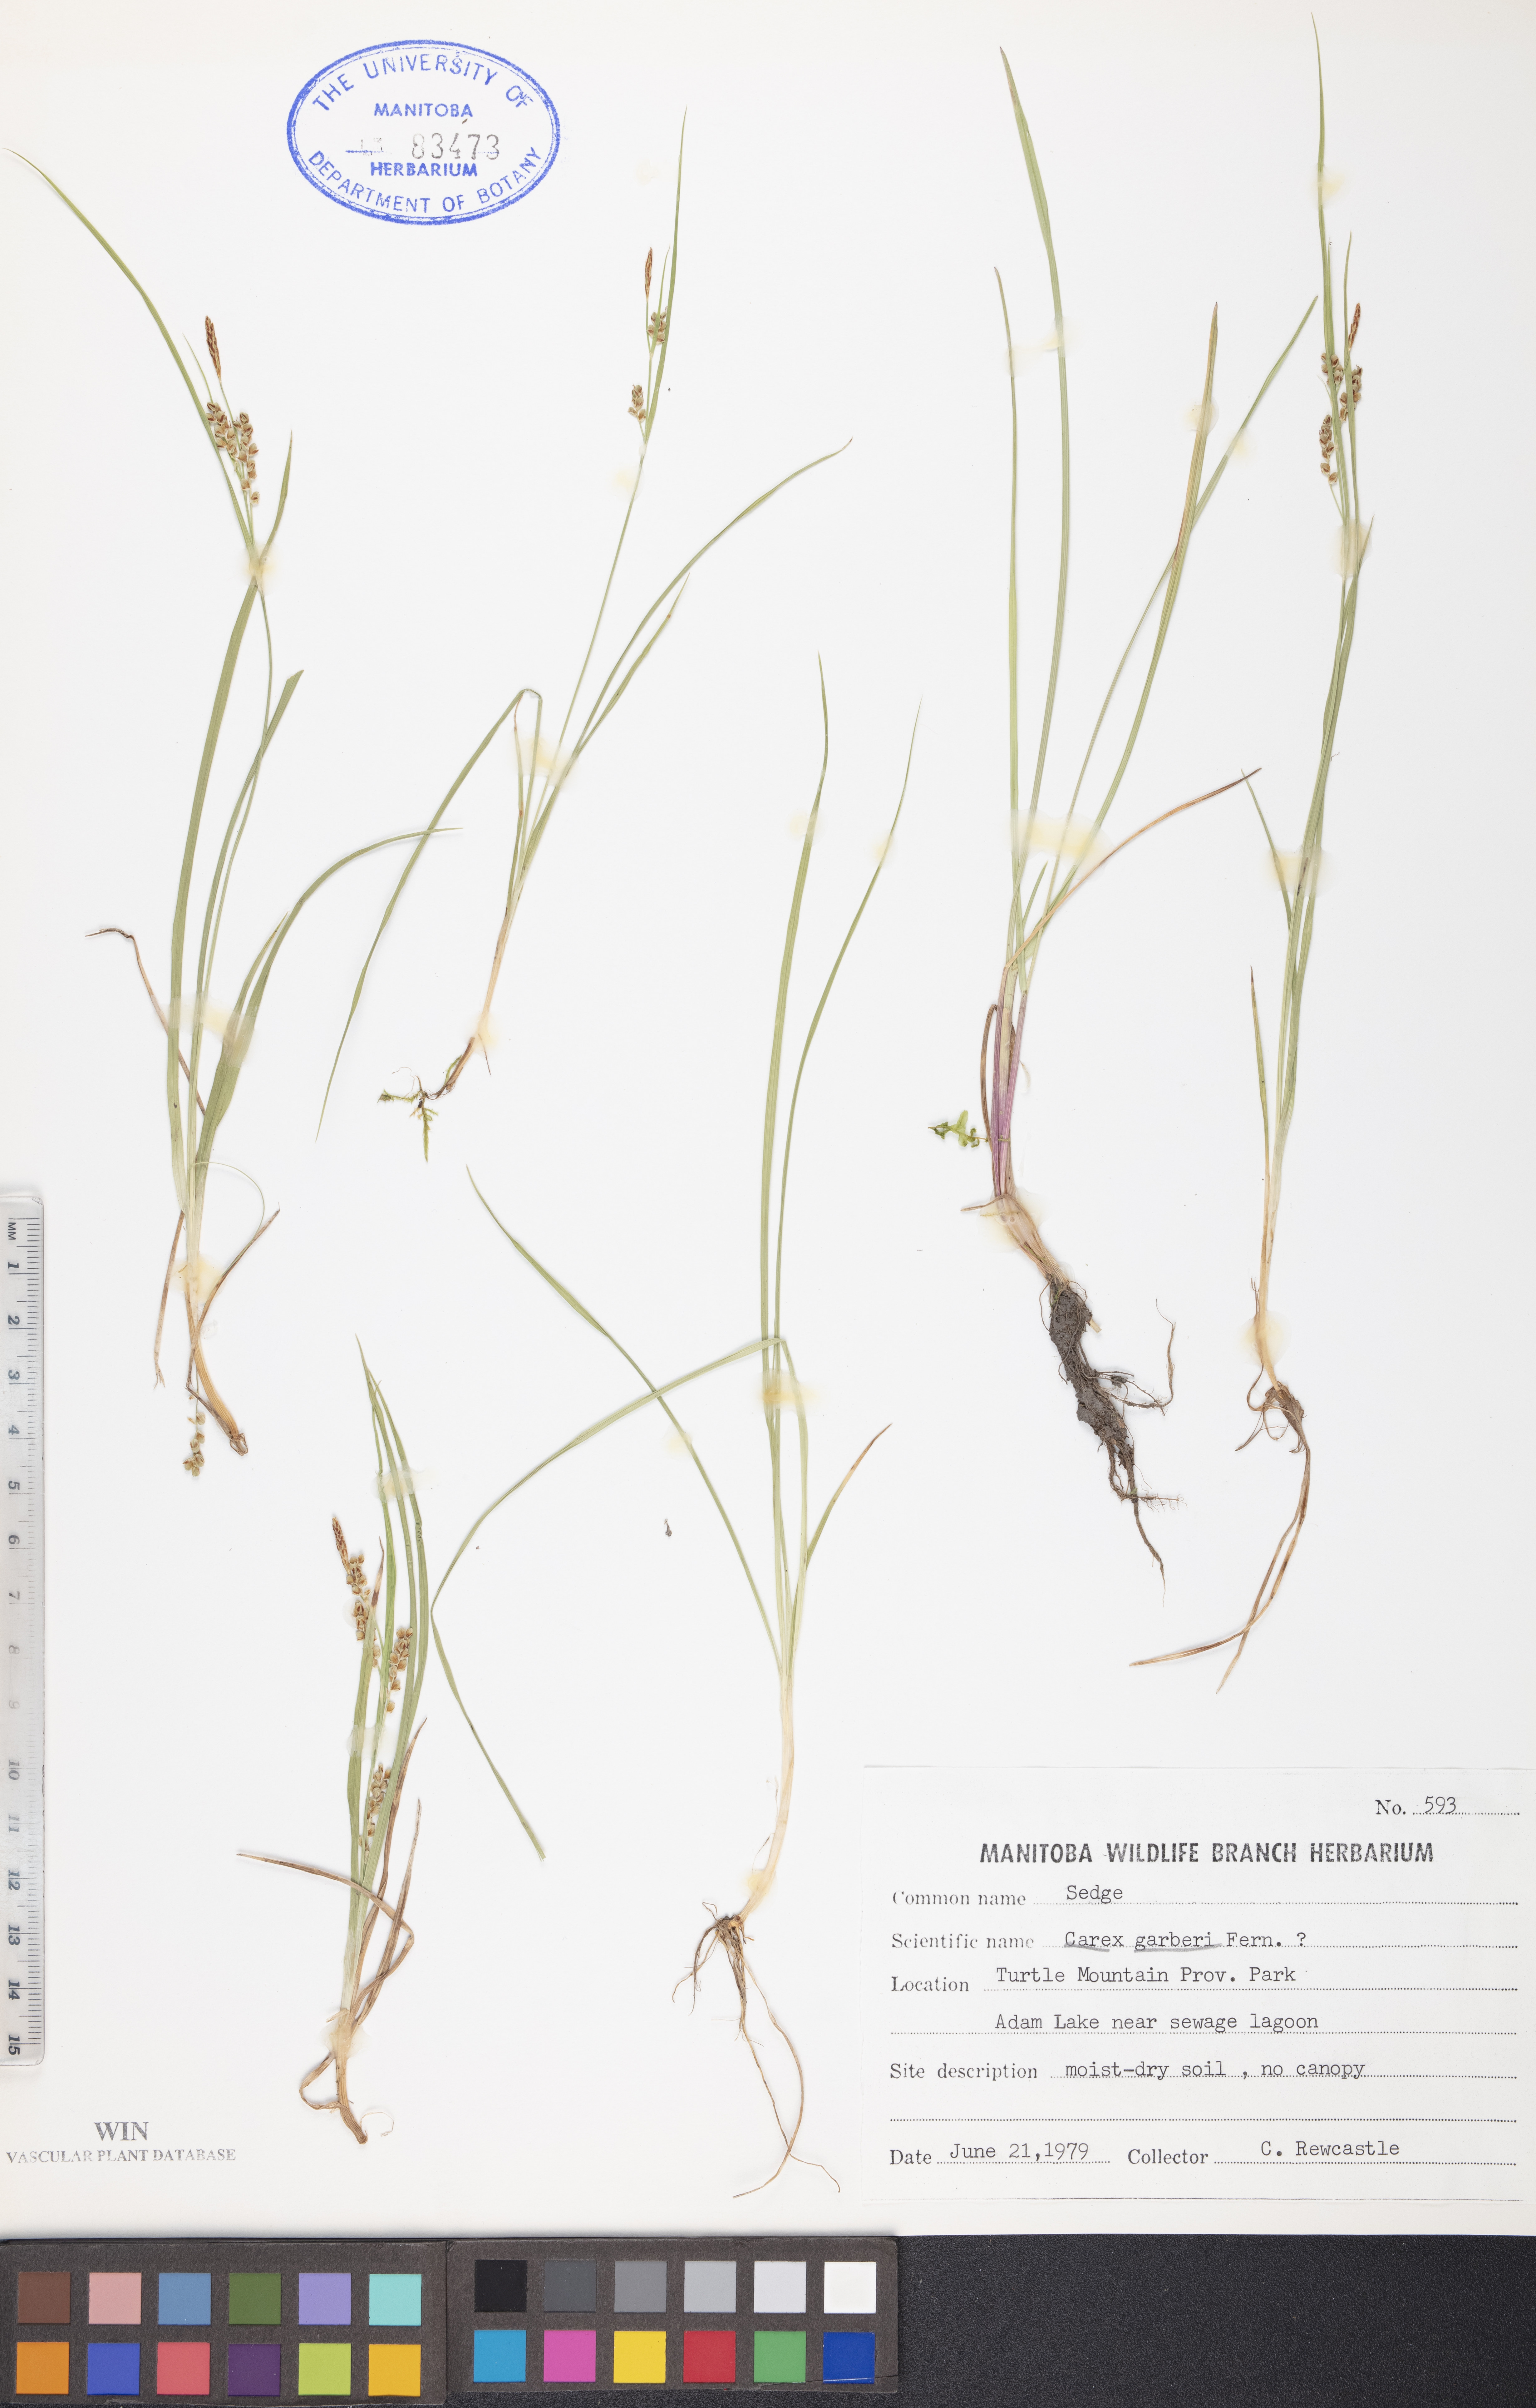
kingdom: Plantae
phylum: Tracheophyta
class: Liliopsida
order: Poales
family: Cyperaceae
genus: Carex
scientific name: Carex garberi
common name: Elk sedge
